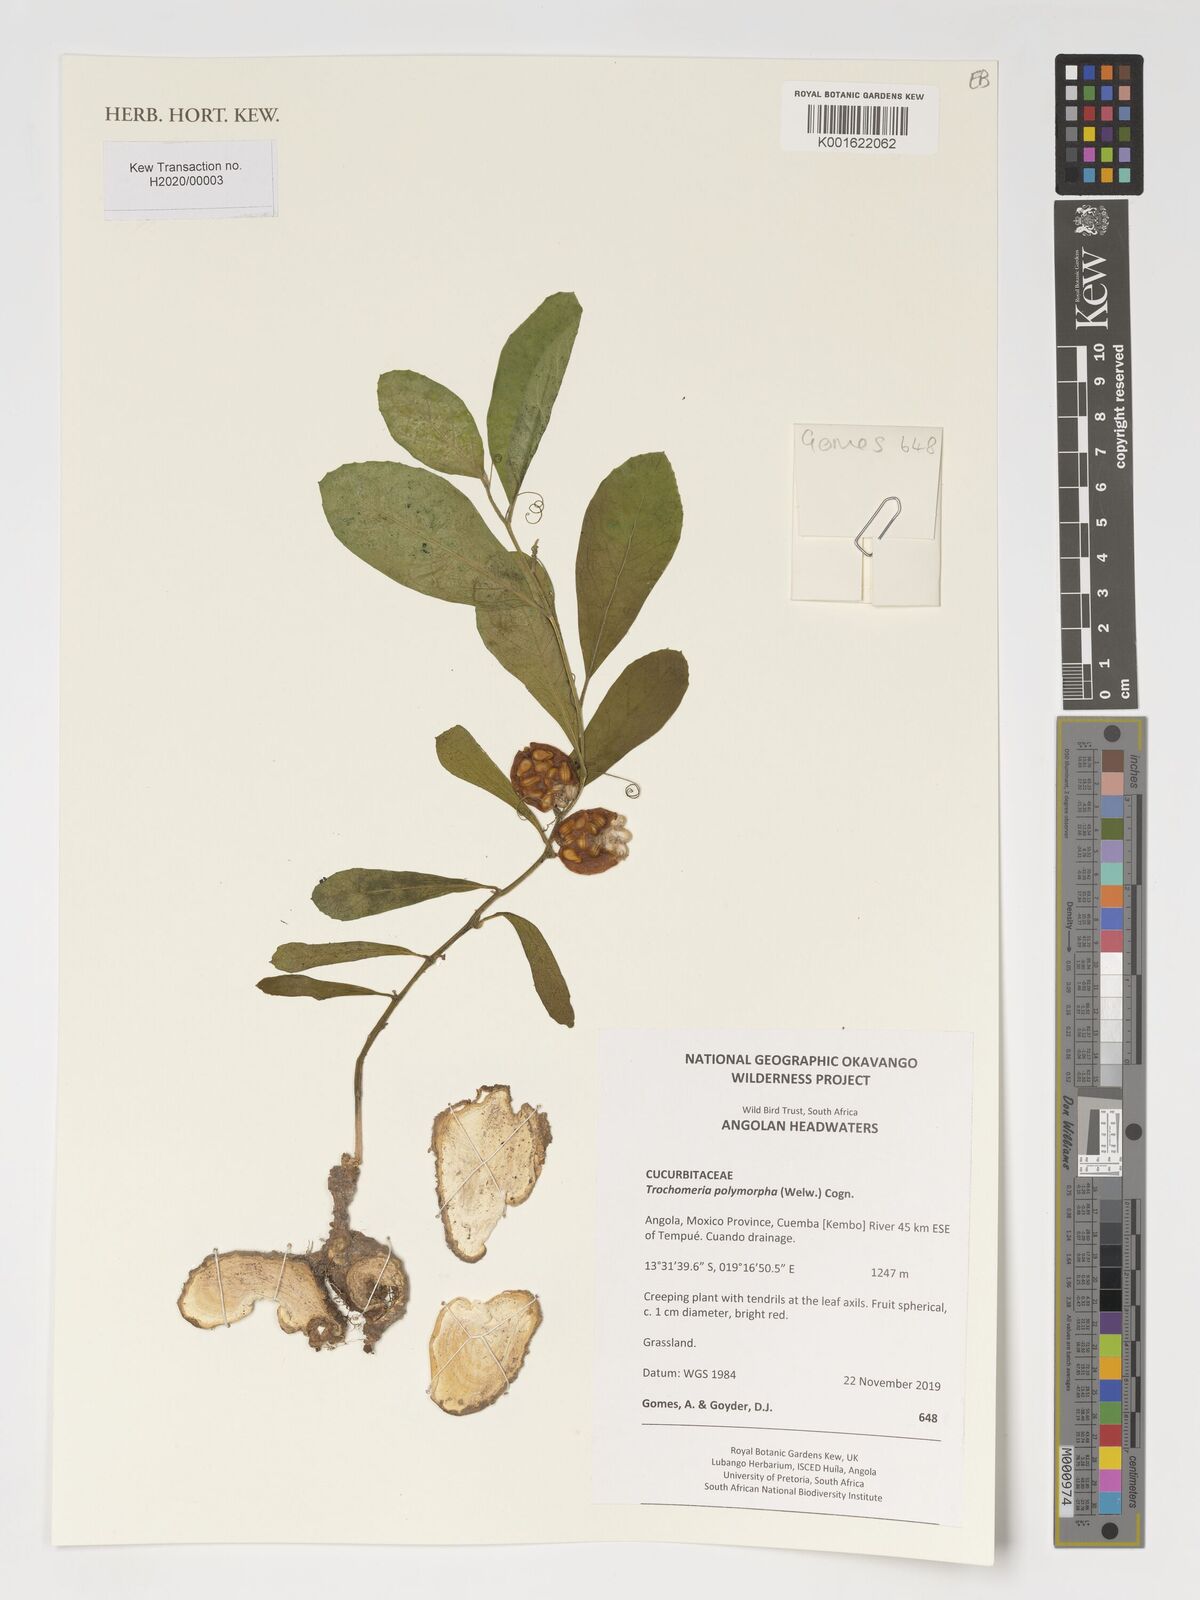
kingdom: Plantae
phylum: Tracheophyta
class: Magnoliopsida
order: Cucurbitales
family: Cucurbitaceae
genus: Trochomeria
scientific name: Trochomeria polymorpha
